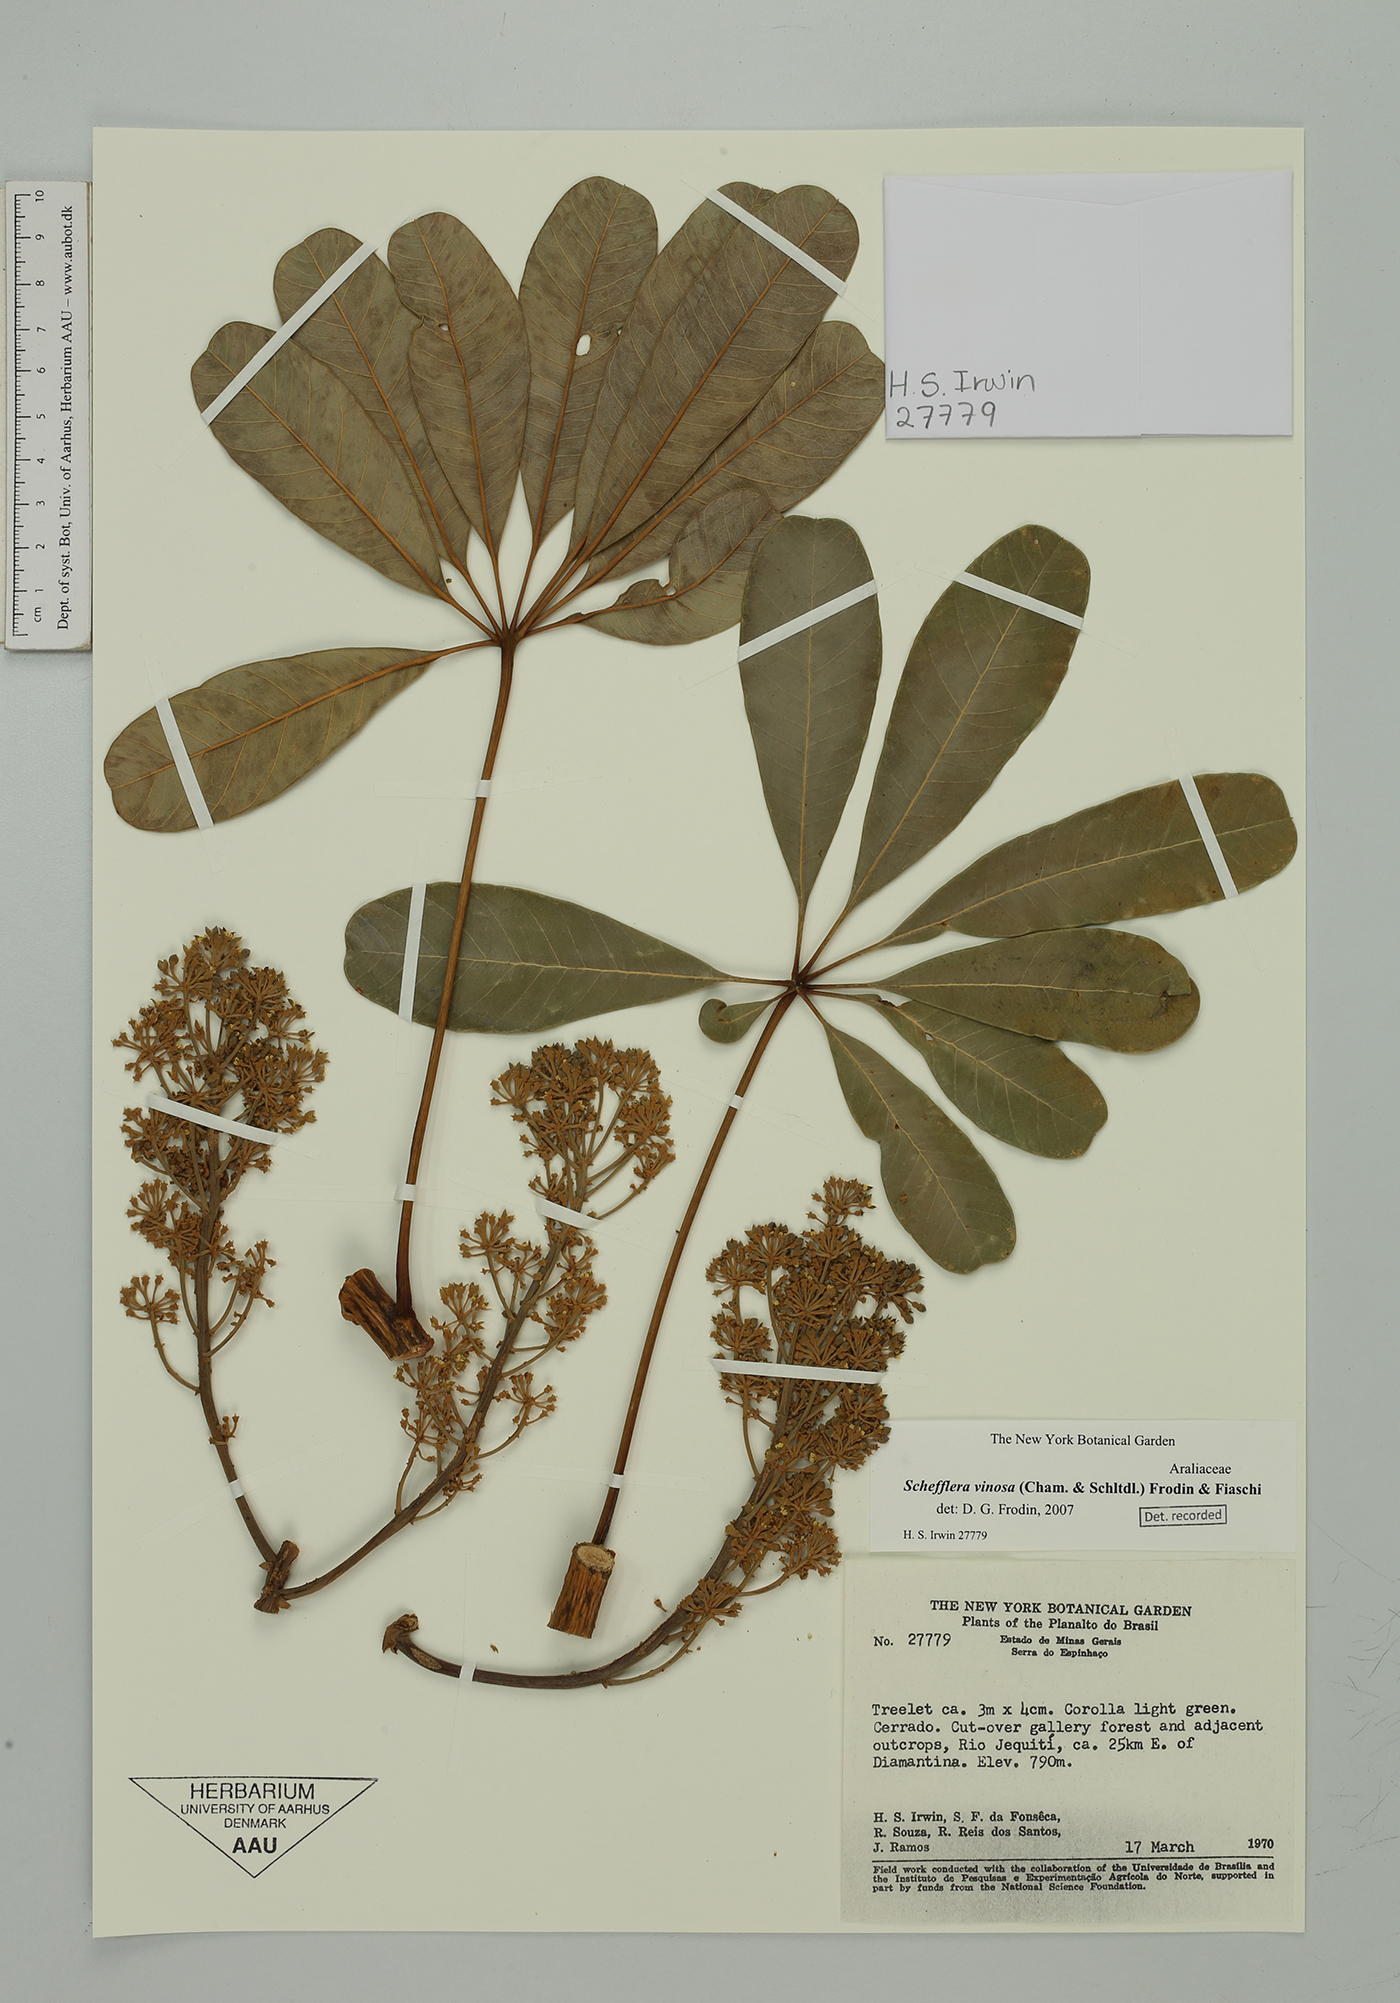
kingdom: Plantae
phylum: Tracheophyta
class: Magnoliopsida
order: Apiales
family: Araliaceae
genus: Didymopanax
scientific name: Didymopanax vinosus
